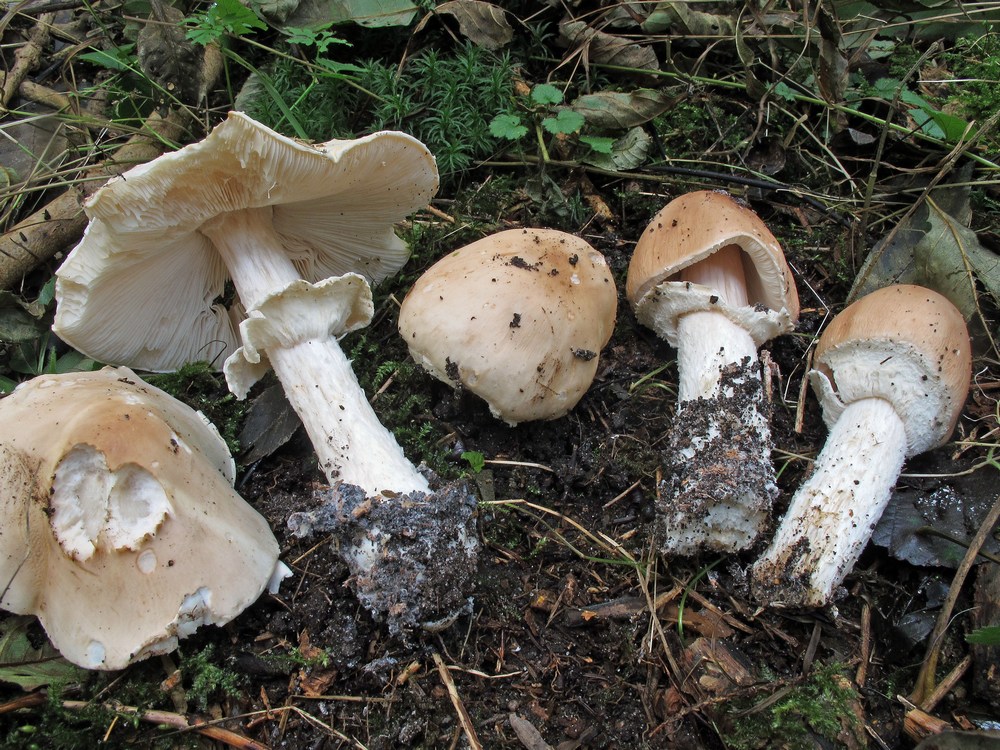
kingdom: Fungi
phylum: Basidiomycota
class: Agaricomycetes
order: Agaricales
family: Amanitaceae
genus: Limacellopsis
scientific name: Limacellopsis guttata
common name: tåre-snekkehat
